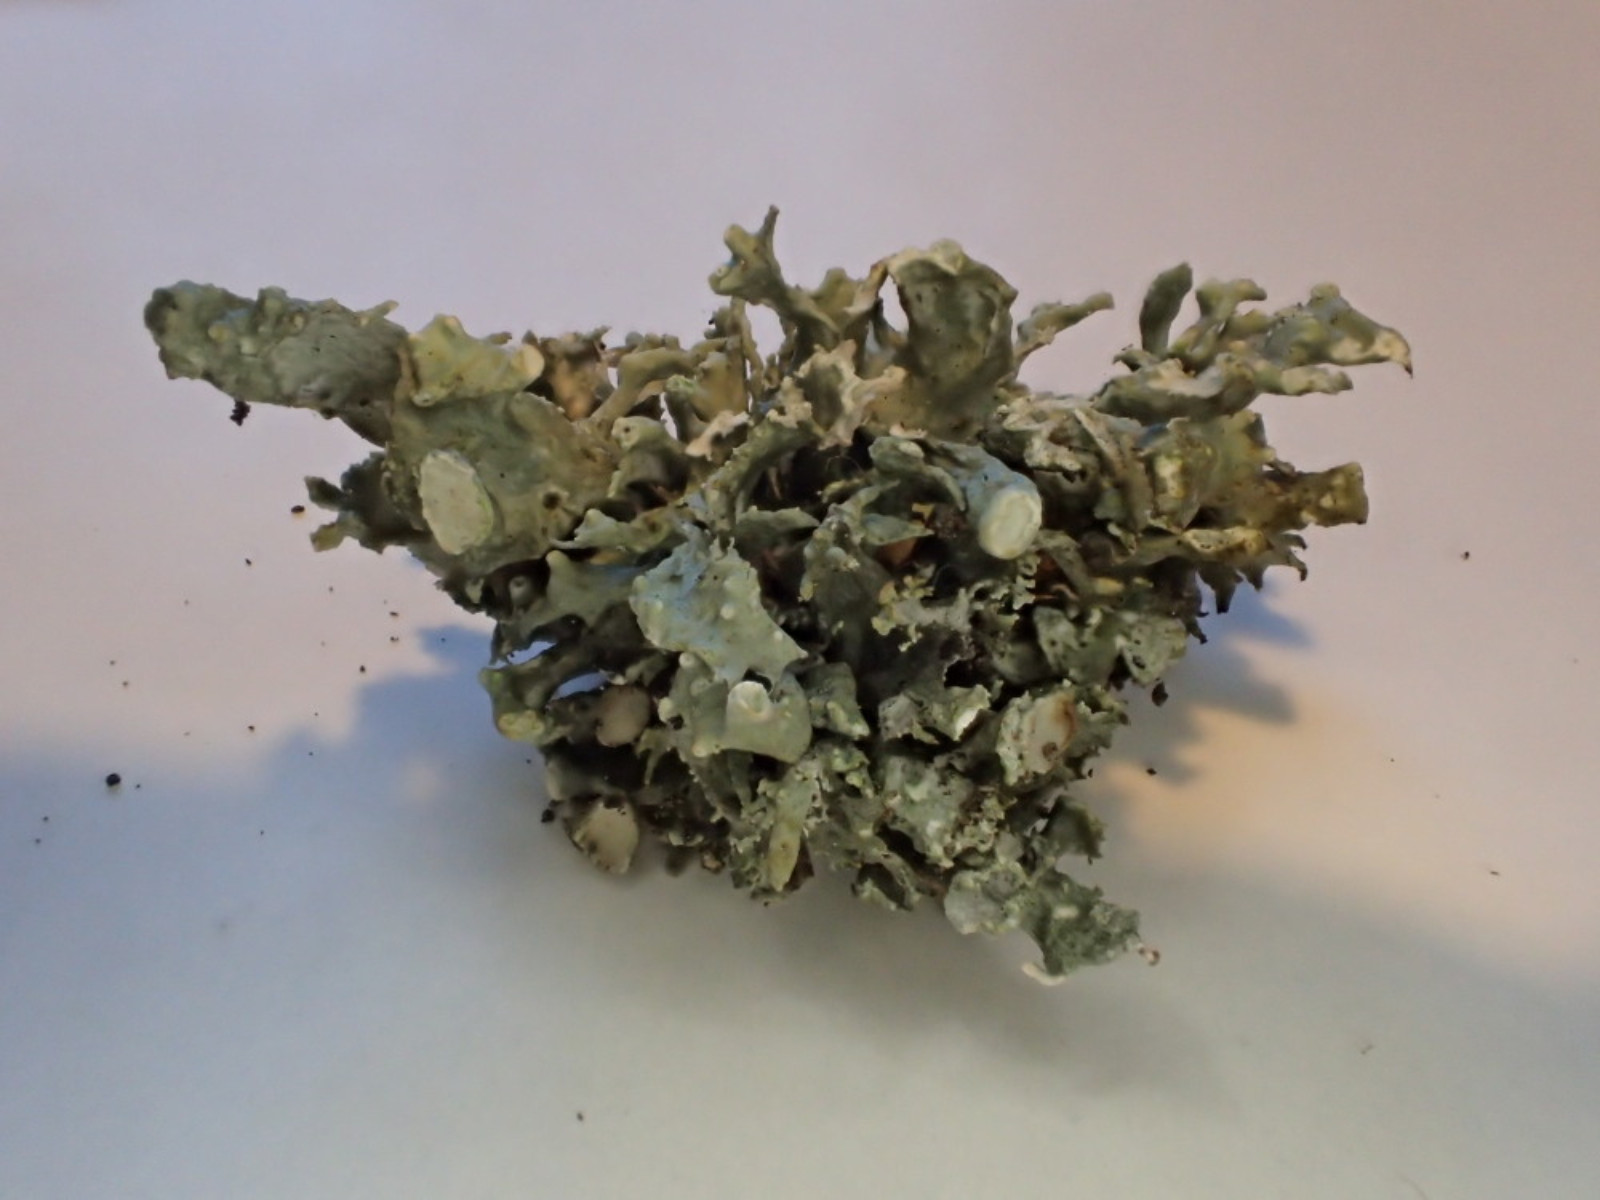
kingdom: Fungi
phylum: Ascomycota
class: Lecanoromycetes
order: Lecanorales
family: Ramalinaceae
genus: Ramalina
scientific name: Ramalina fastigiata
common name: tue-grenlav
